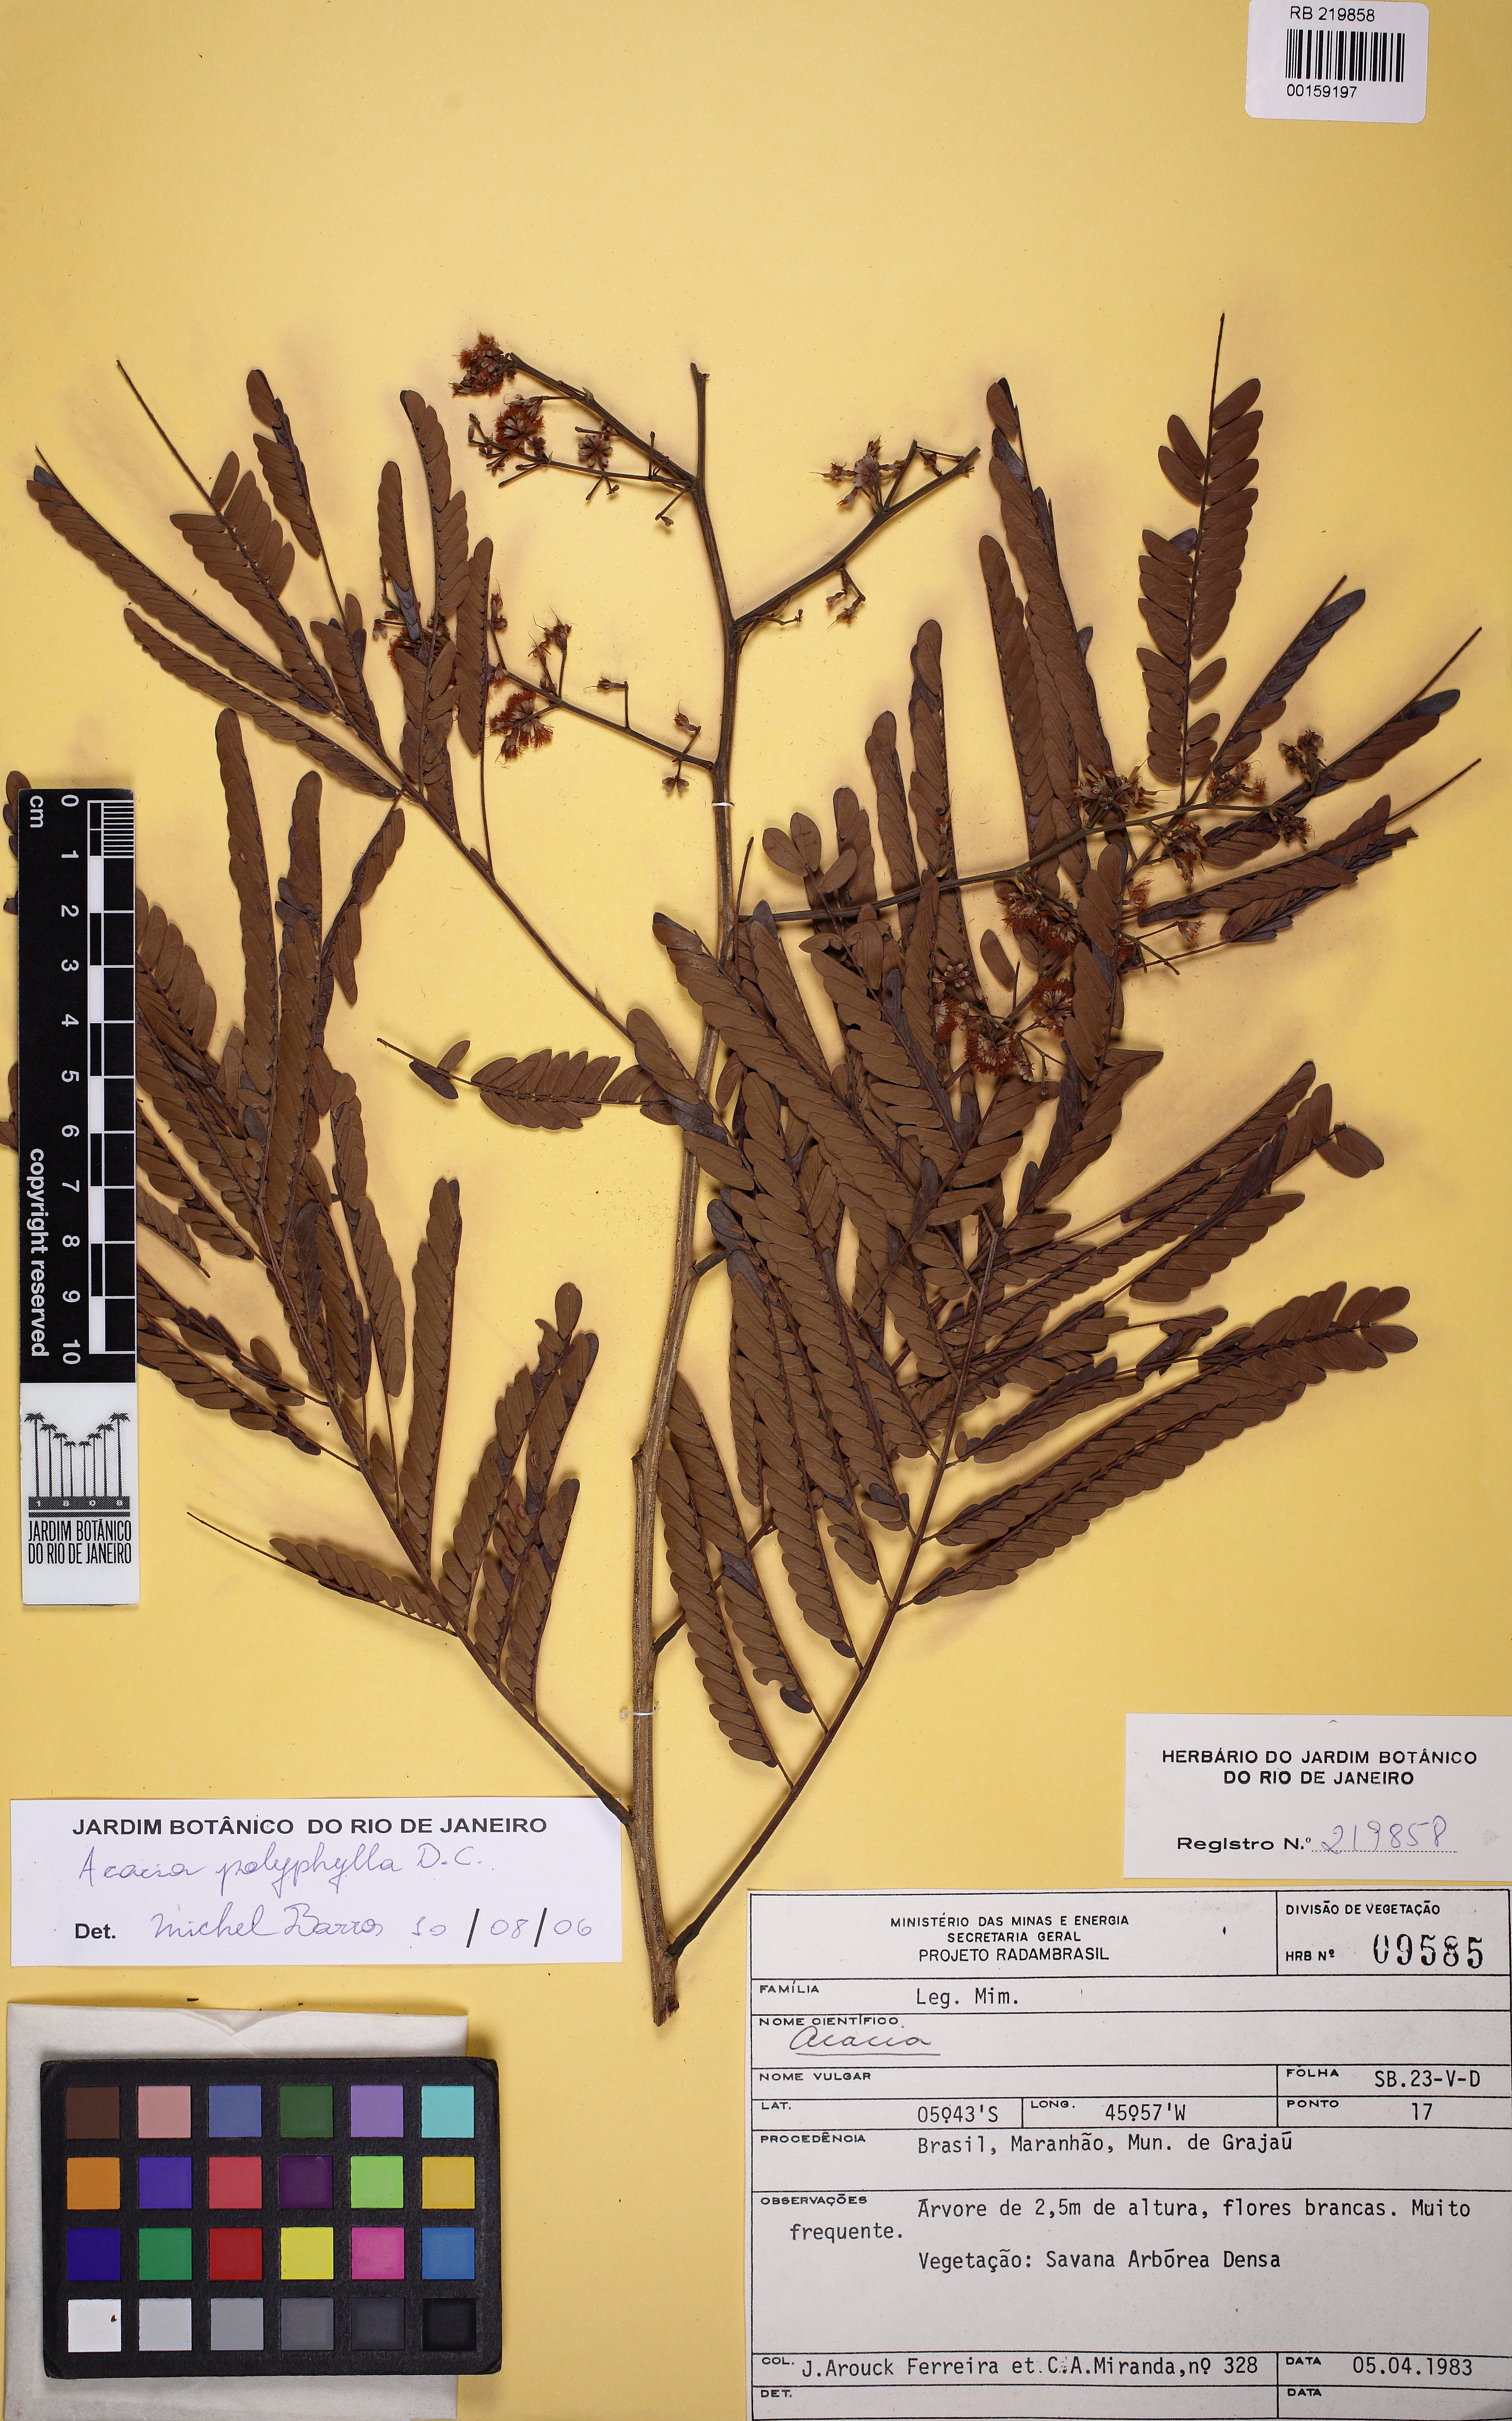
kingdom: Plantae
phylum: Tracheophyta
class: Magnoliopsida
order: Fabales
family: Fabaceae
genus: Senegalia
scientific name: Senegalia polyphylla
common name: White-tamarind
